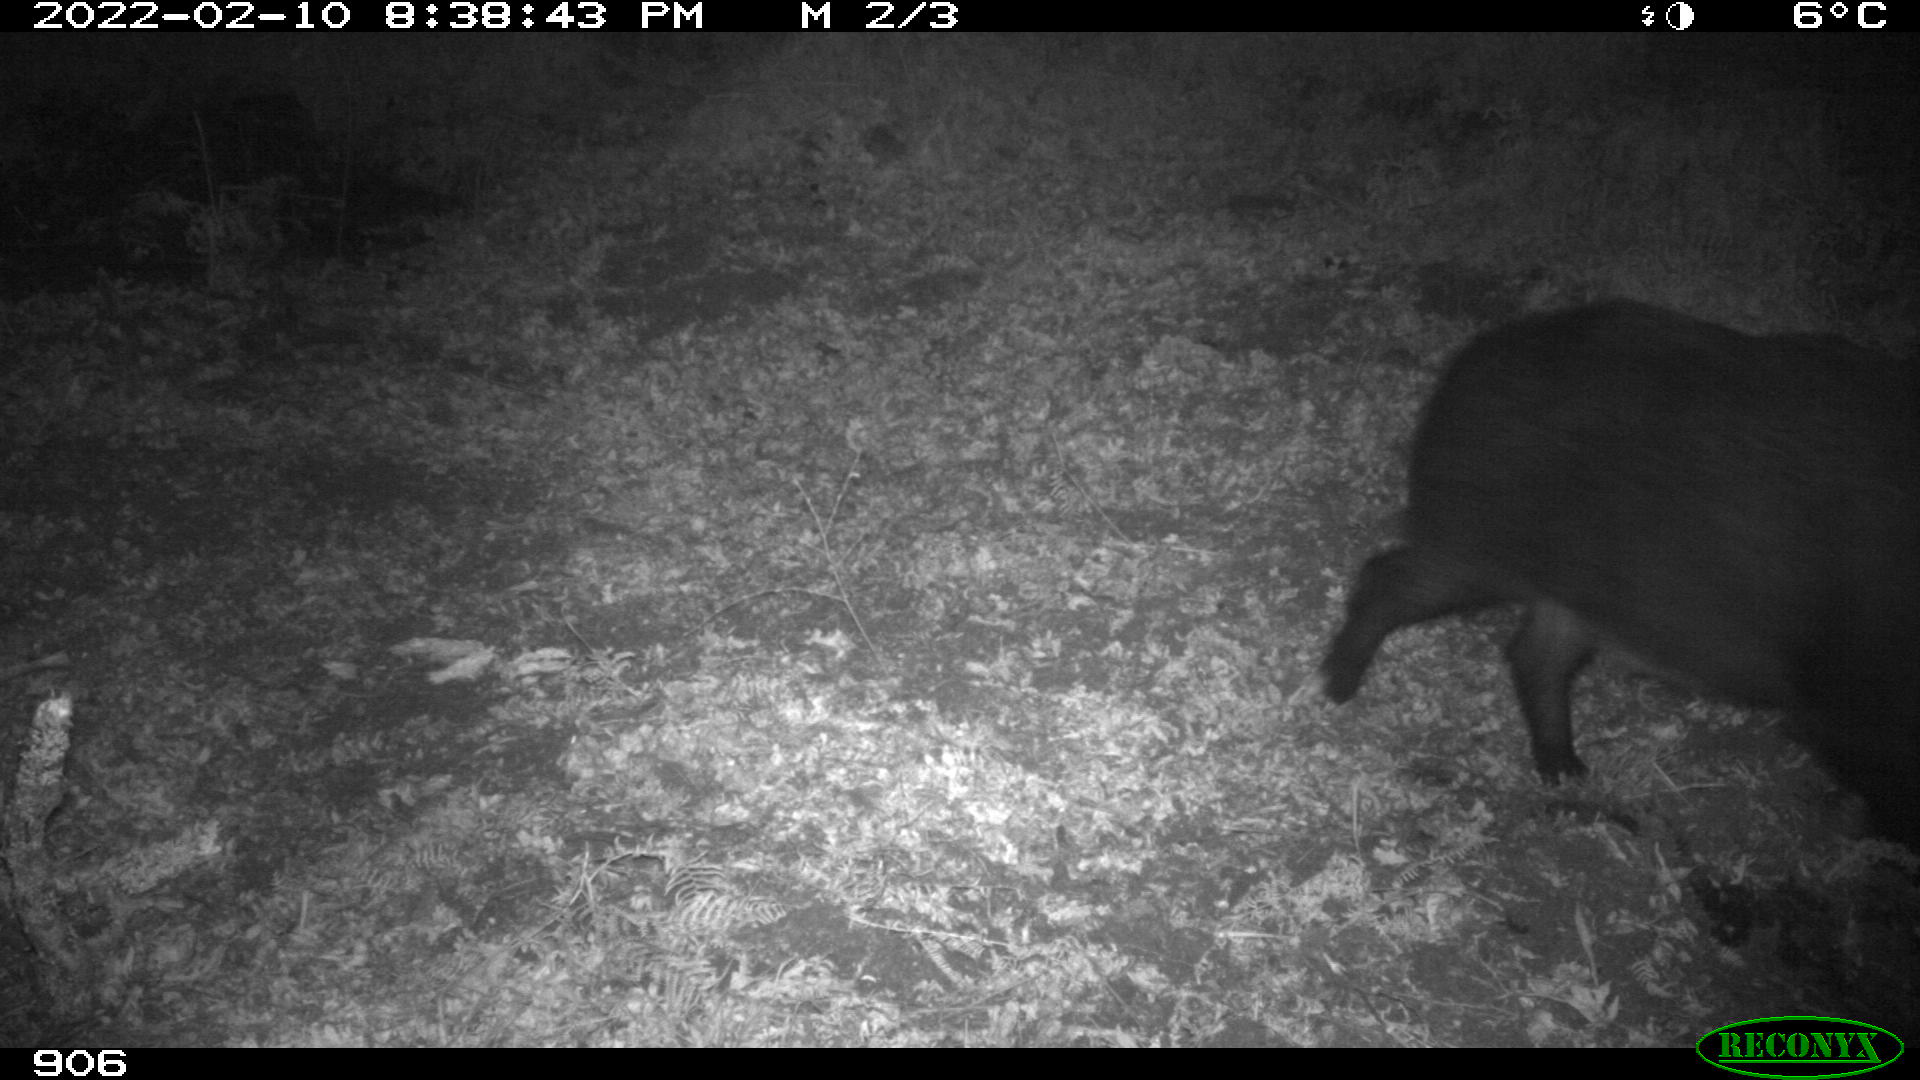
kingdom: Animalia
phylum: Chordata
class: Mammalia
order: Artiodactyla
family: Suidae
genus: Sus
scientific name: Sus scrofa
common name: Wild boar
